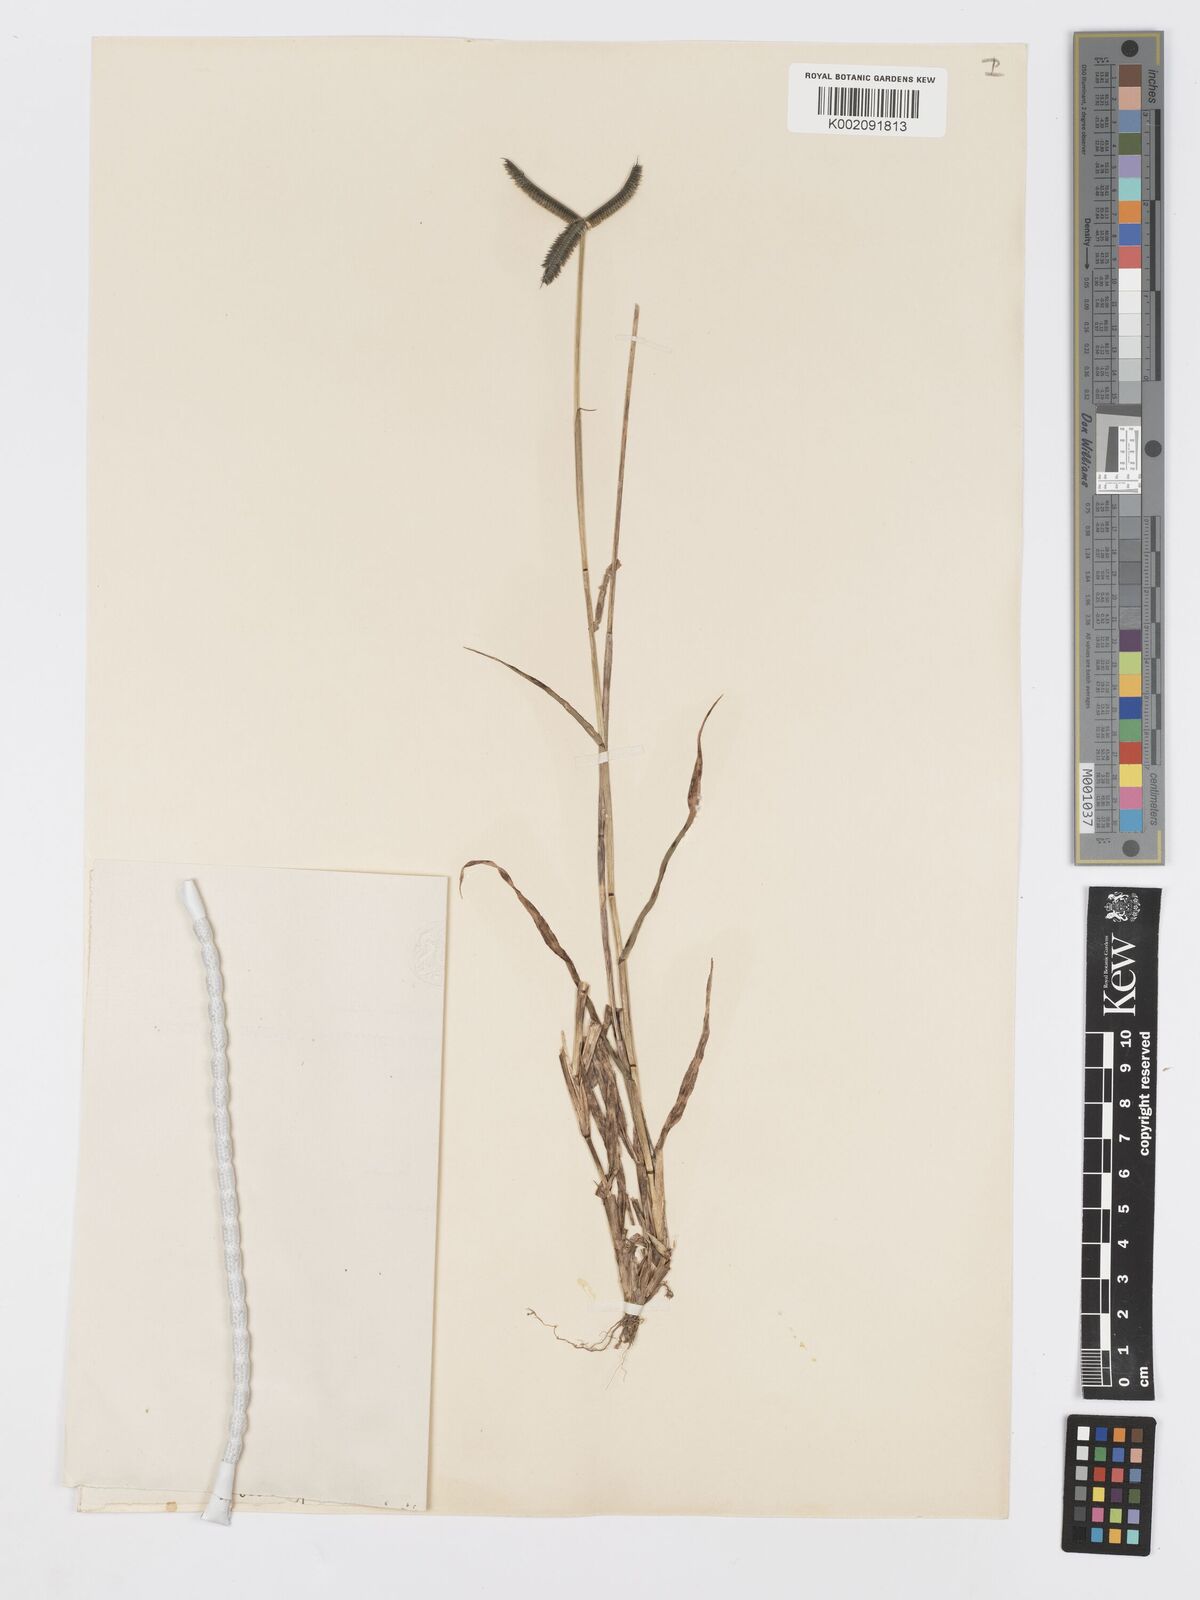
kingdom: Plantae
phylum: Tracheophyta
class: Liliopsida
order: Poales
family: Poaceae
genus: Dactyloctenium
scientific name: Dactyloctenium aegyptium
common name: Egyptian grass
